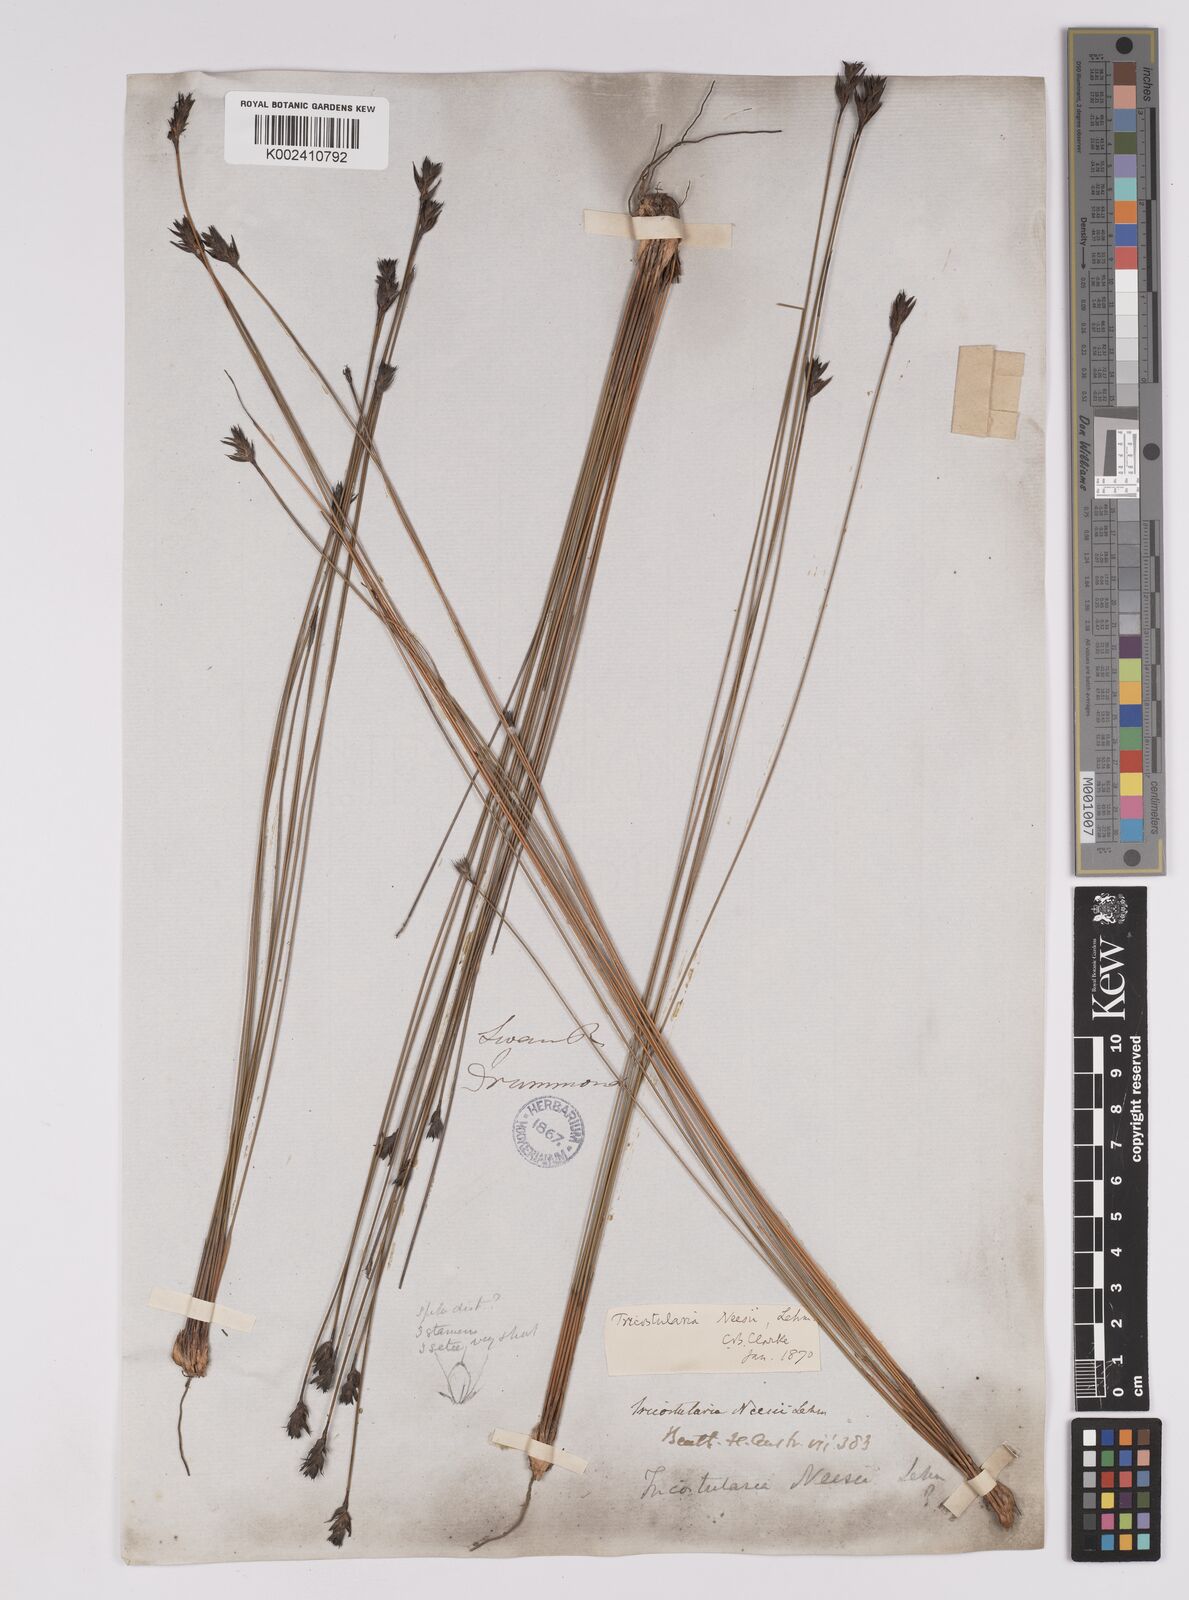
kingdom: Plantae
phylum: Tracheophyta
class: Liliopsida
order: Poales
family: Cyperaceae
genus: Tricostularia
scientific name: Tricostularia neesii
